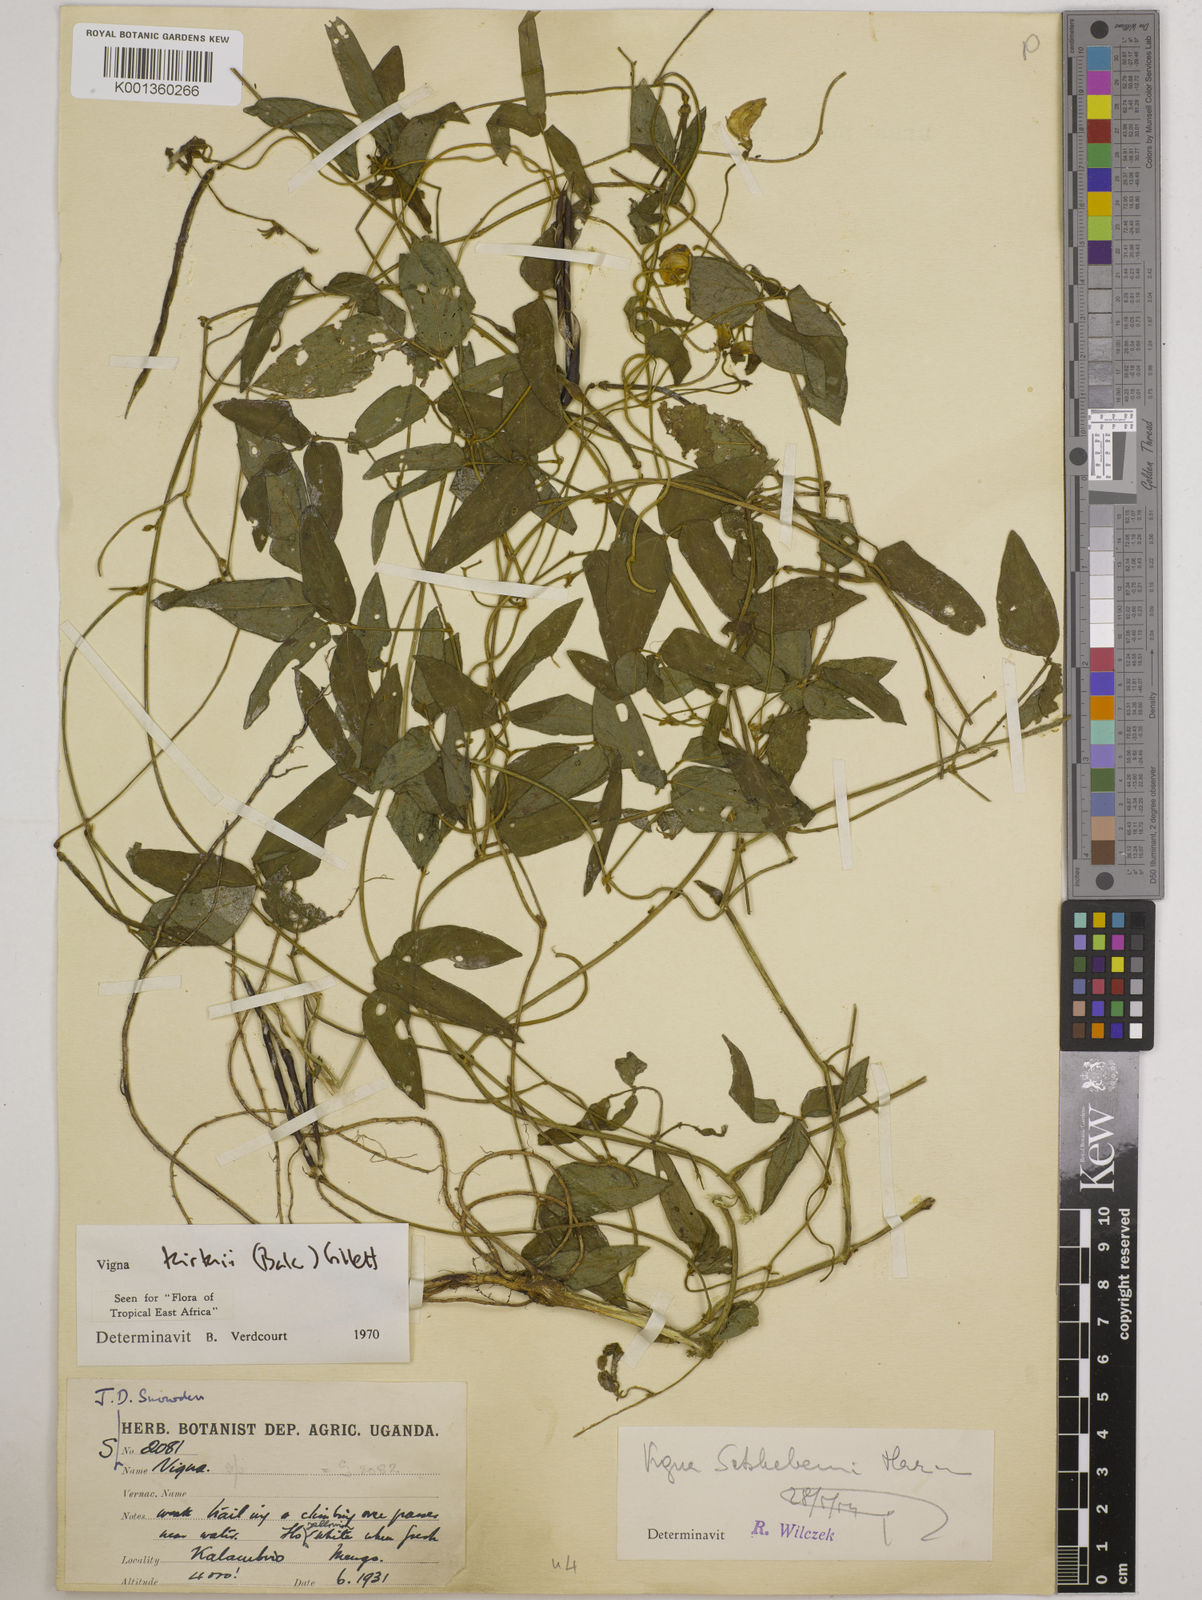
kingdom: Plantae
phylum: Tracheophyta
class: Magnoliopsida
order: Fabales
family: Fabaceae
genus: Vigna
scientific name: Vigna kirkii
